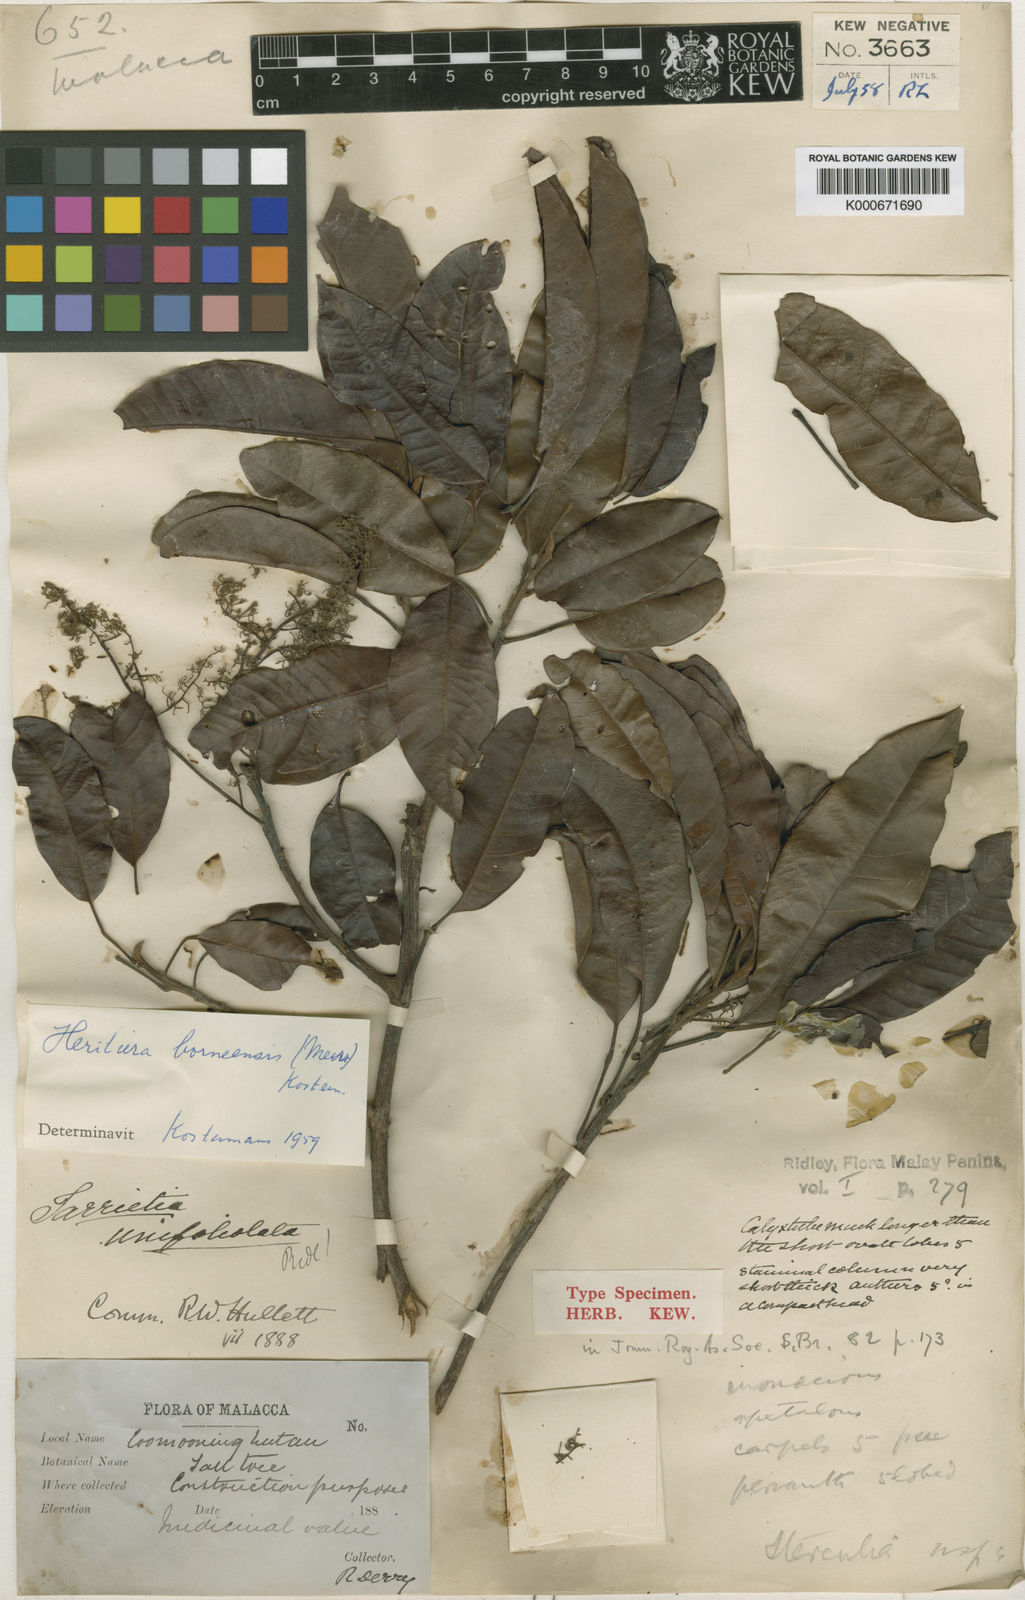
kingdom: Plantae
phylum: Tracheophyta
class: Magnoliopsida
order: Malvales
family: Malvaceae
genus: Heritiera
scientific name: Heritiera borneensis
